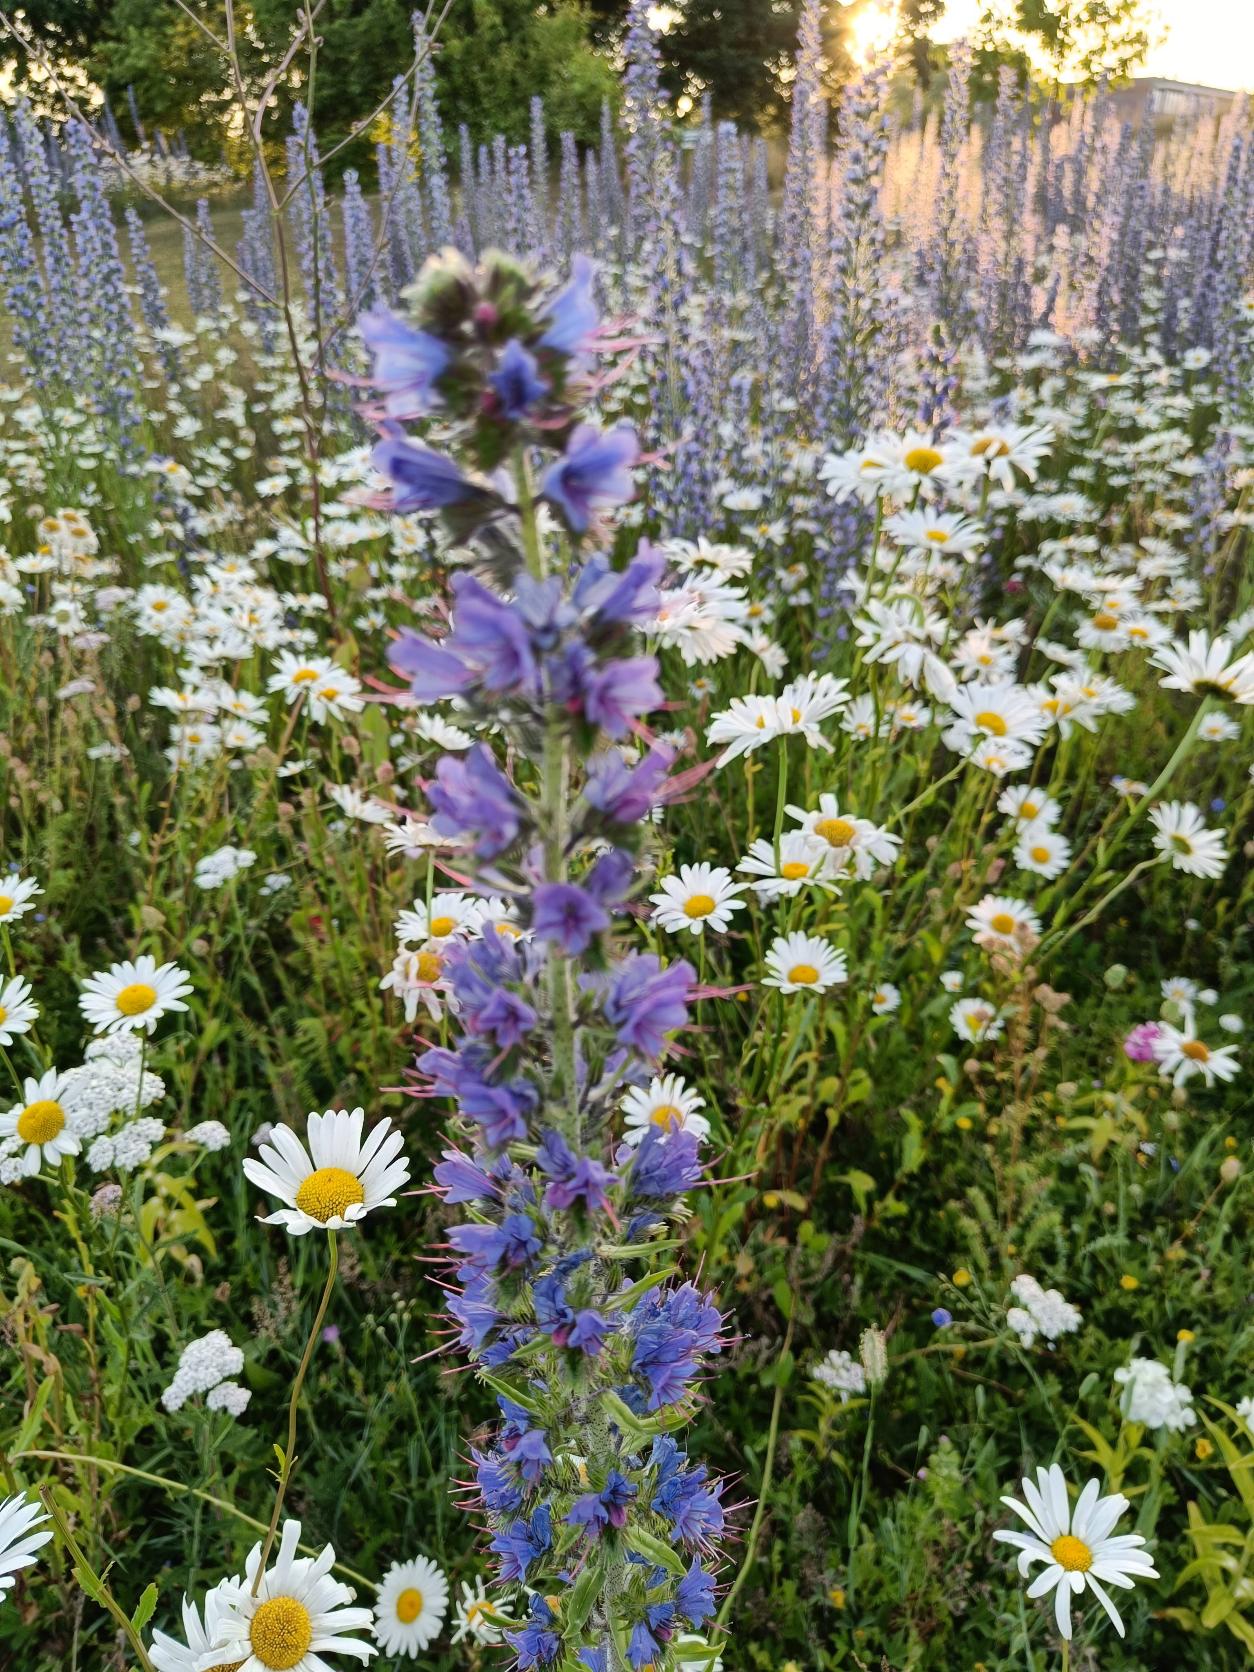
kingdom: Plantae
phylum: Tracheophyta
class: Magnoliopsida
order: Boraginales
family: Boraginaceae
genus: Echium
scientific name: Echium vulgare
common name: Slangehoved
